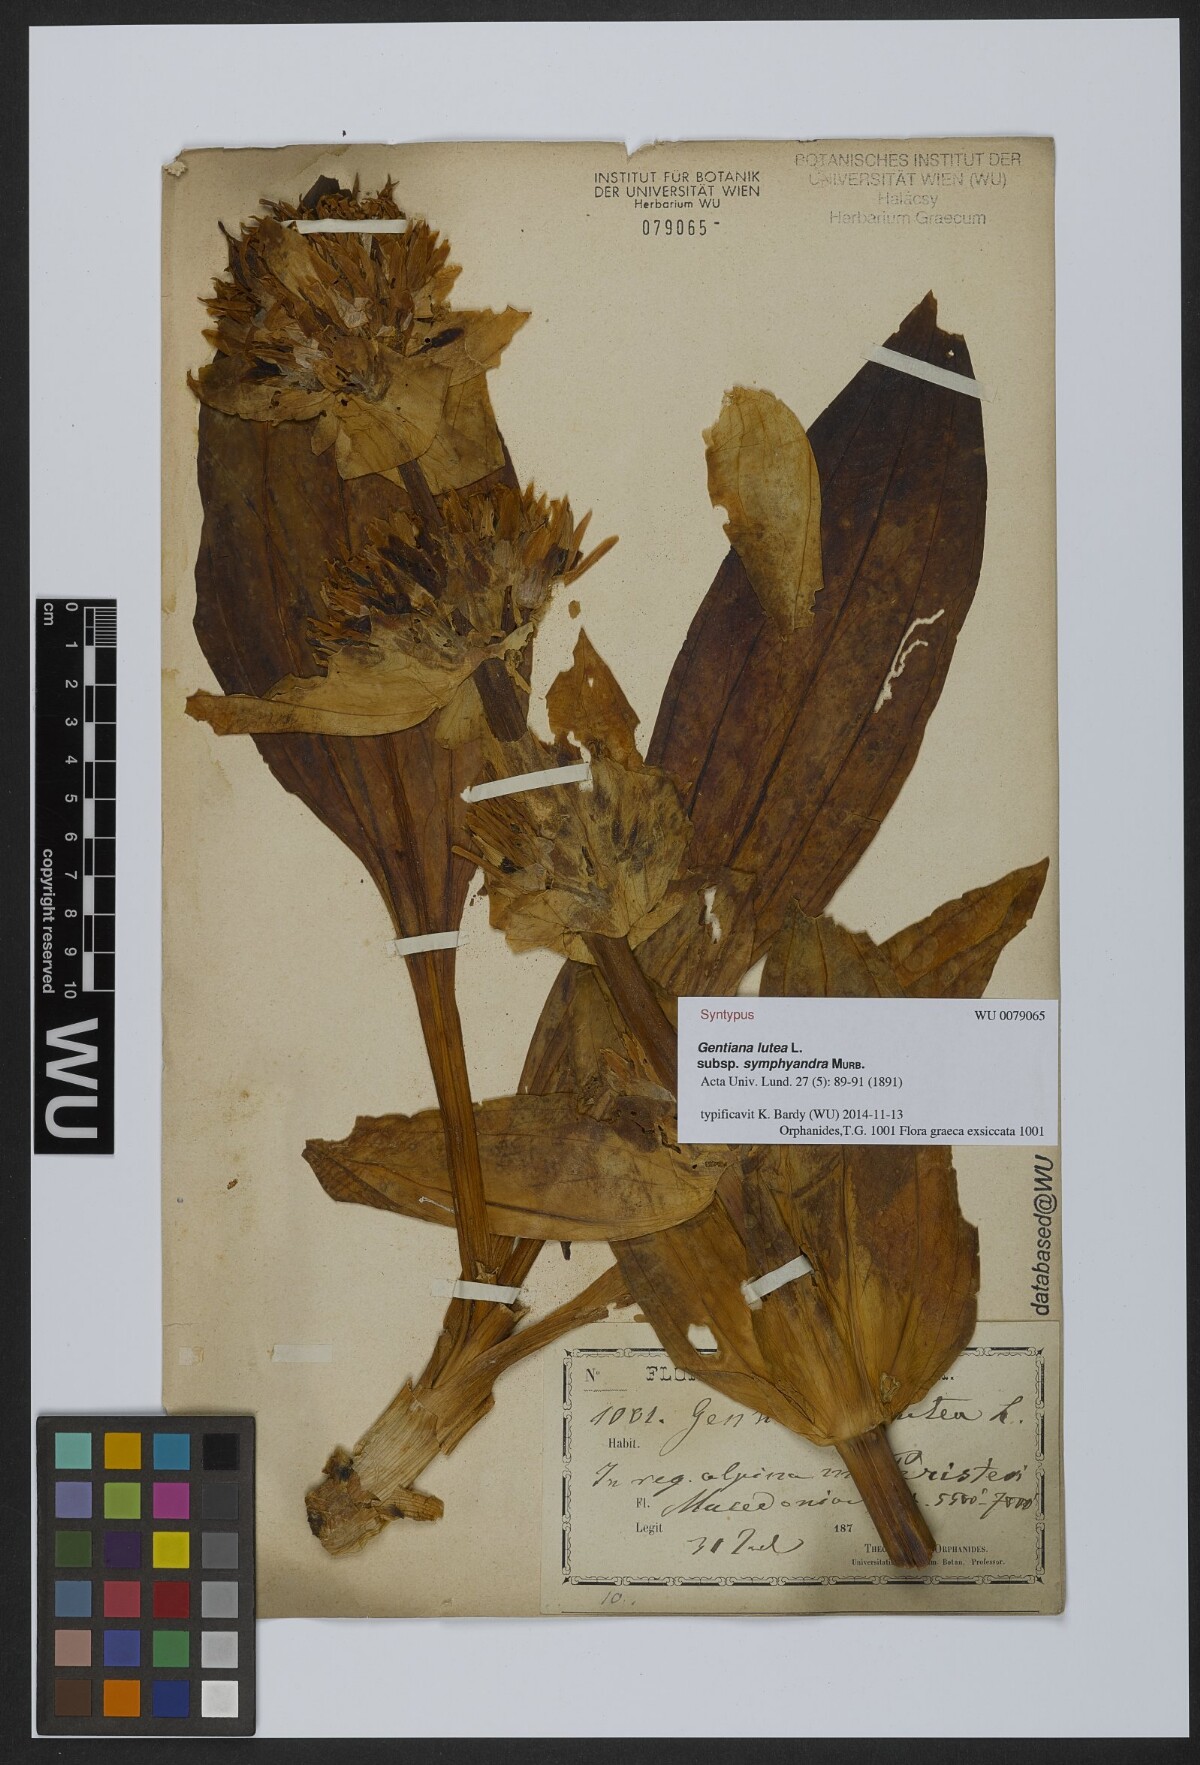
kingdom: Plantae
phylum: Tracheophyta
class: Magnoliopsida
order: Gentianales
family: Gentianaceae
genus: Gentiana
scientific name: Gentiana lutea
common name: Great yellow gentian
